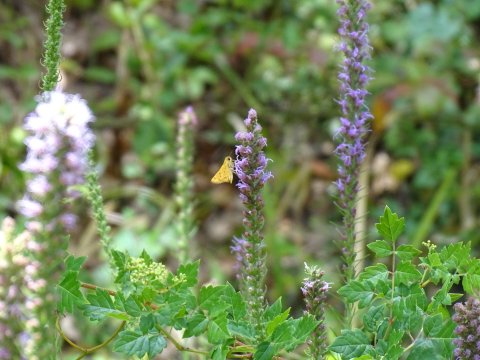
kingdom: Animalia
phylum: Arthropoda
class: Insecta
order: Lepidoptera
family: Hesperiidae
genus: Hylephila
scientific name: Hylephila phyleus
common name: Fiery Skipper
